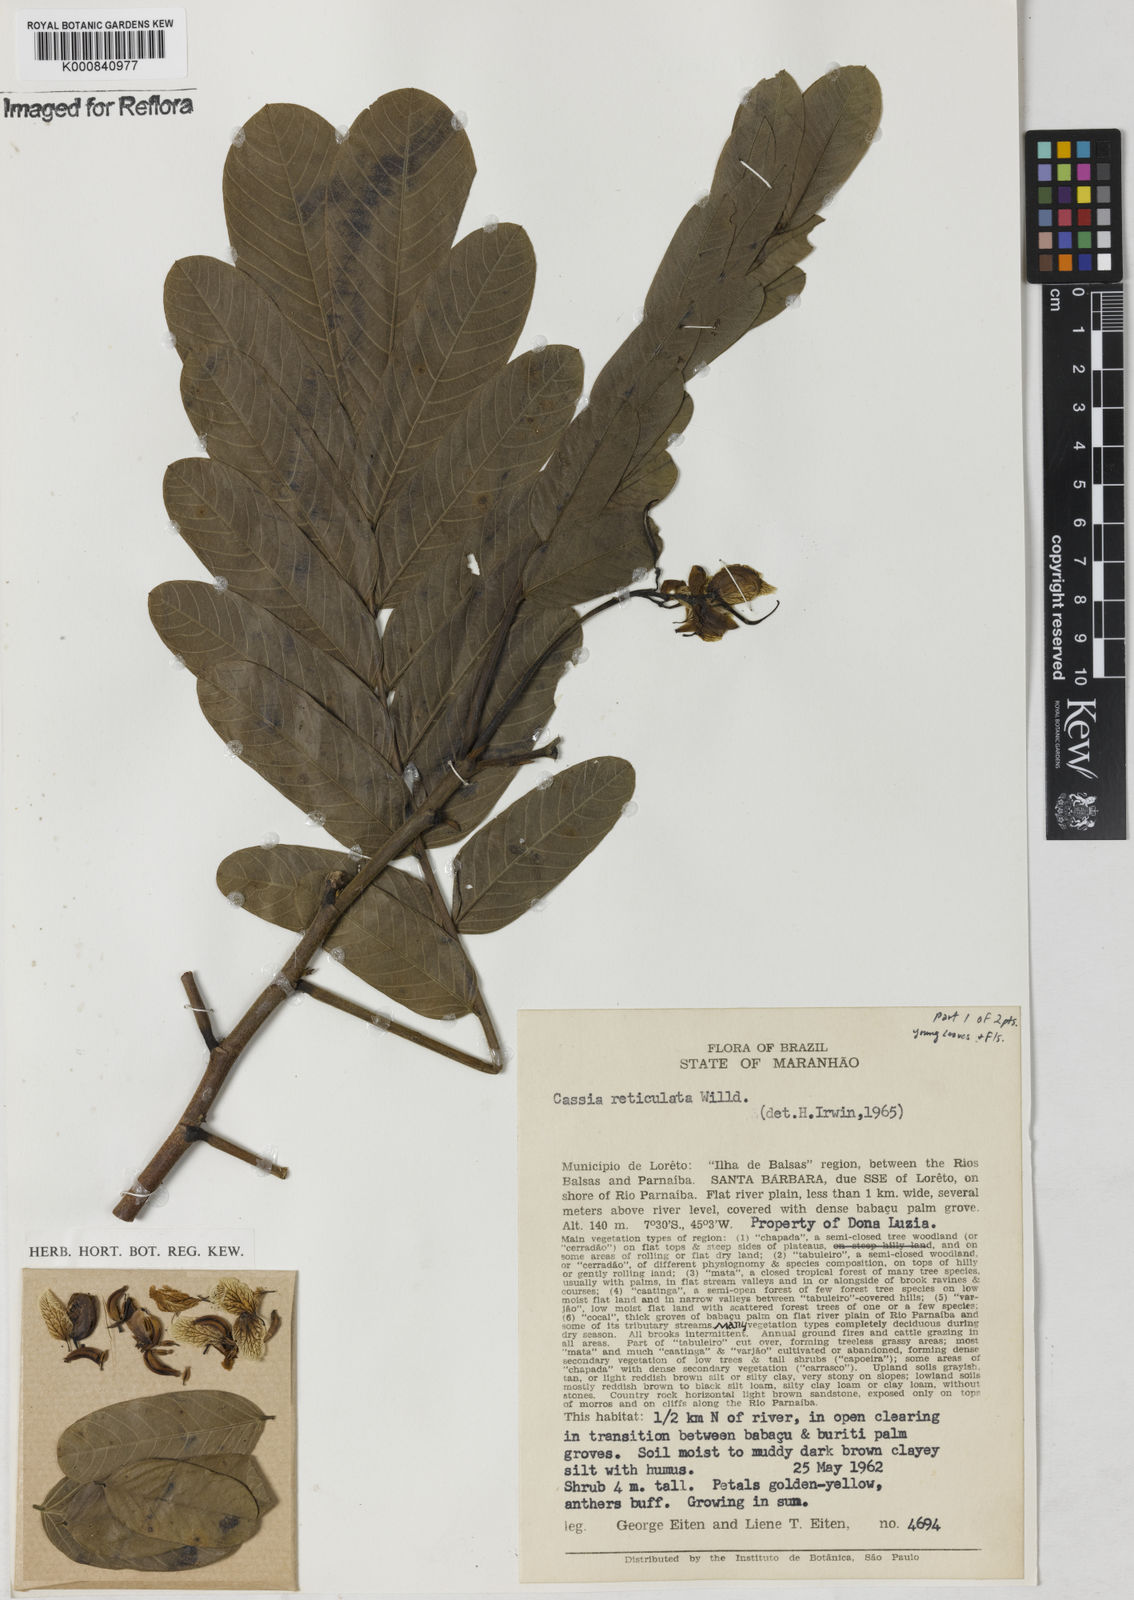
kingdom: Plantae
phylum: Tracheophyta
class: Magnoliopsida
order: Fabales
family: Fabaceae
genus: Senna
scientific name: Senna reticulata
